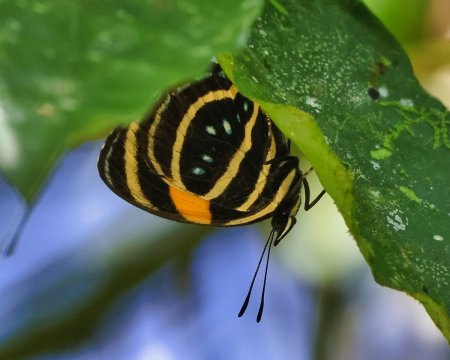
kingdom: Animalia
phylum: Arthropoda
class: Insecta
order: Lepidoptera
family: Nymphalidae
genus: Catagramma
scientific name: Catagramma Callicore lyca
